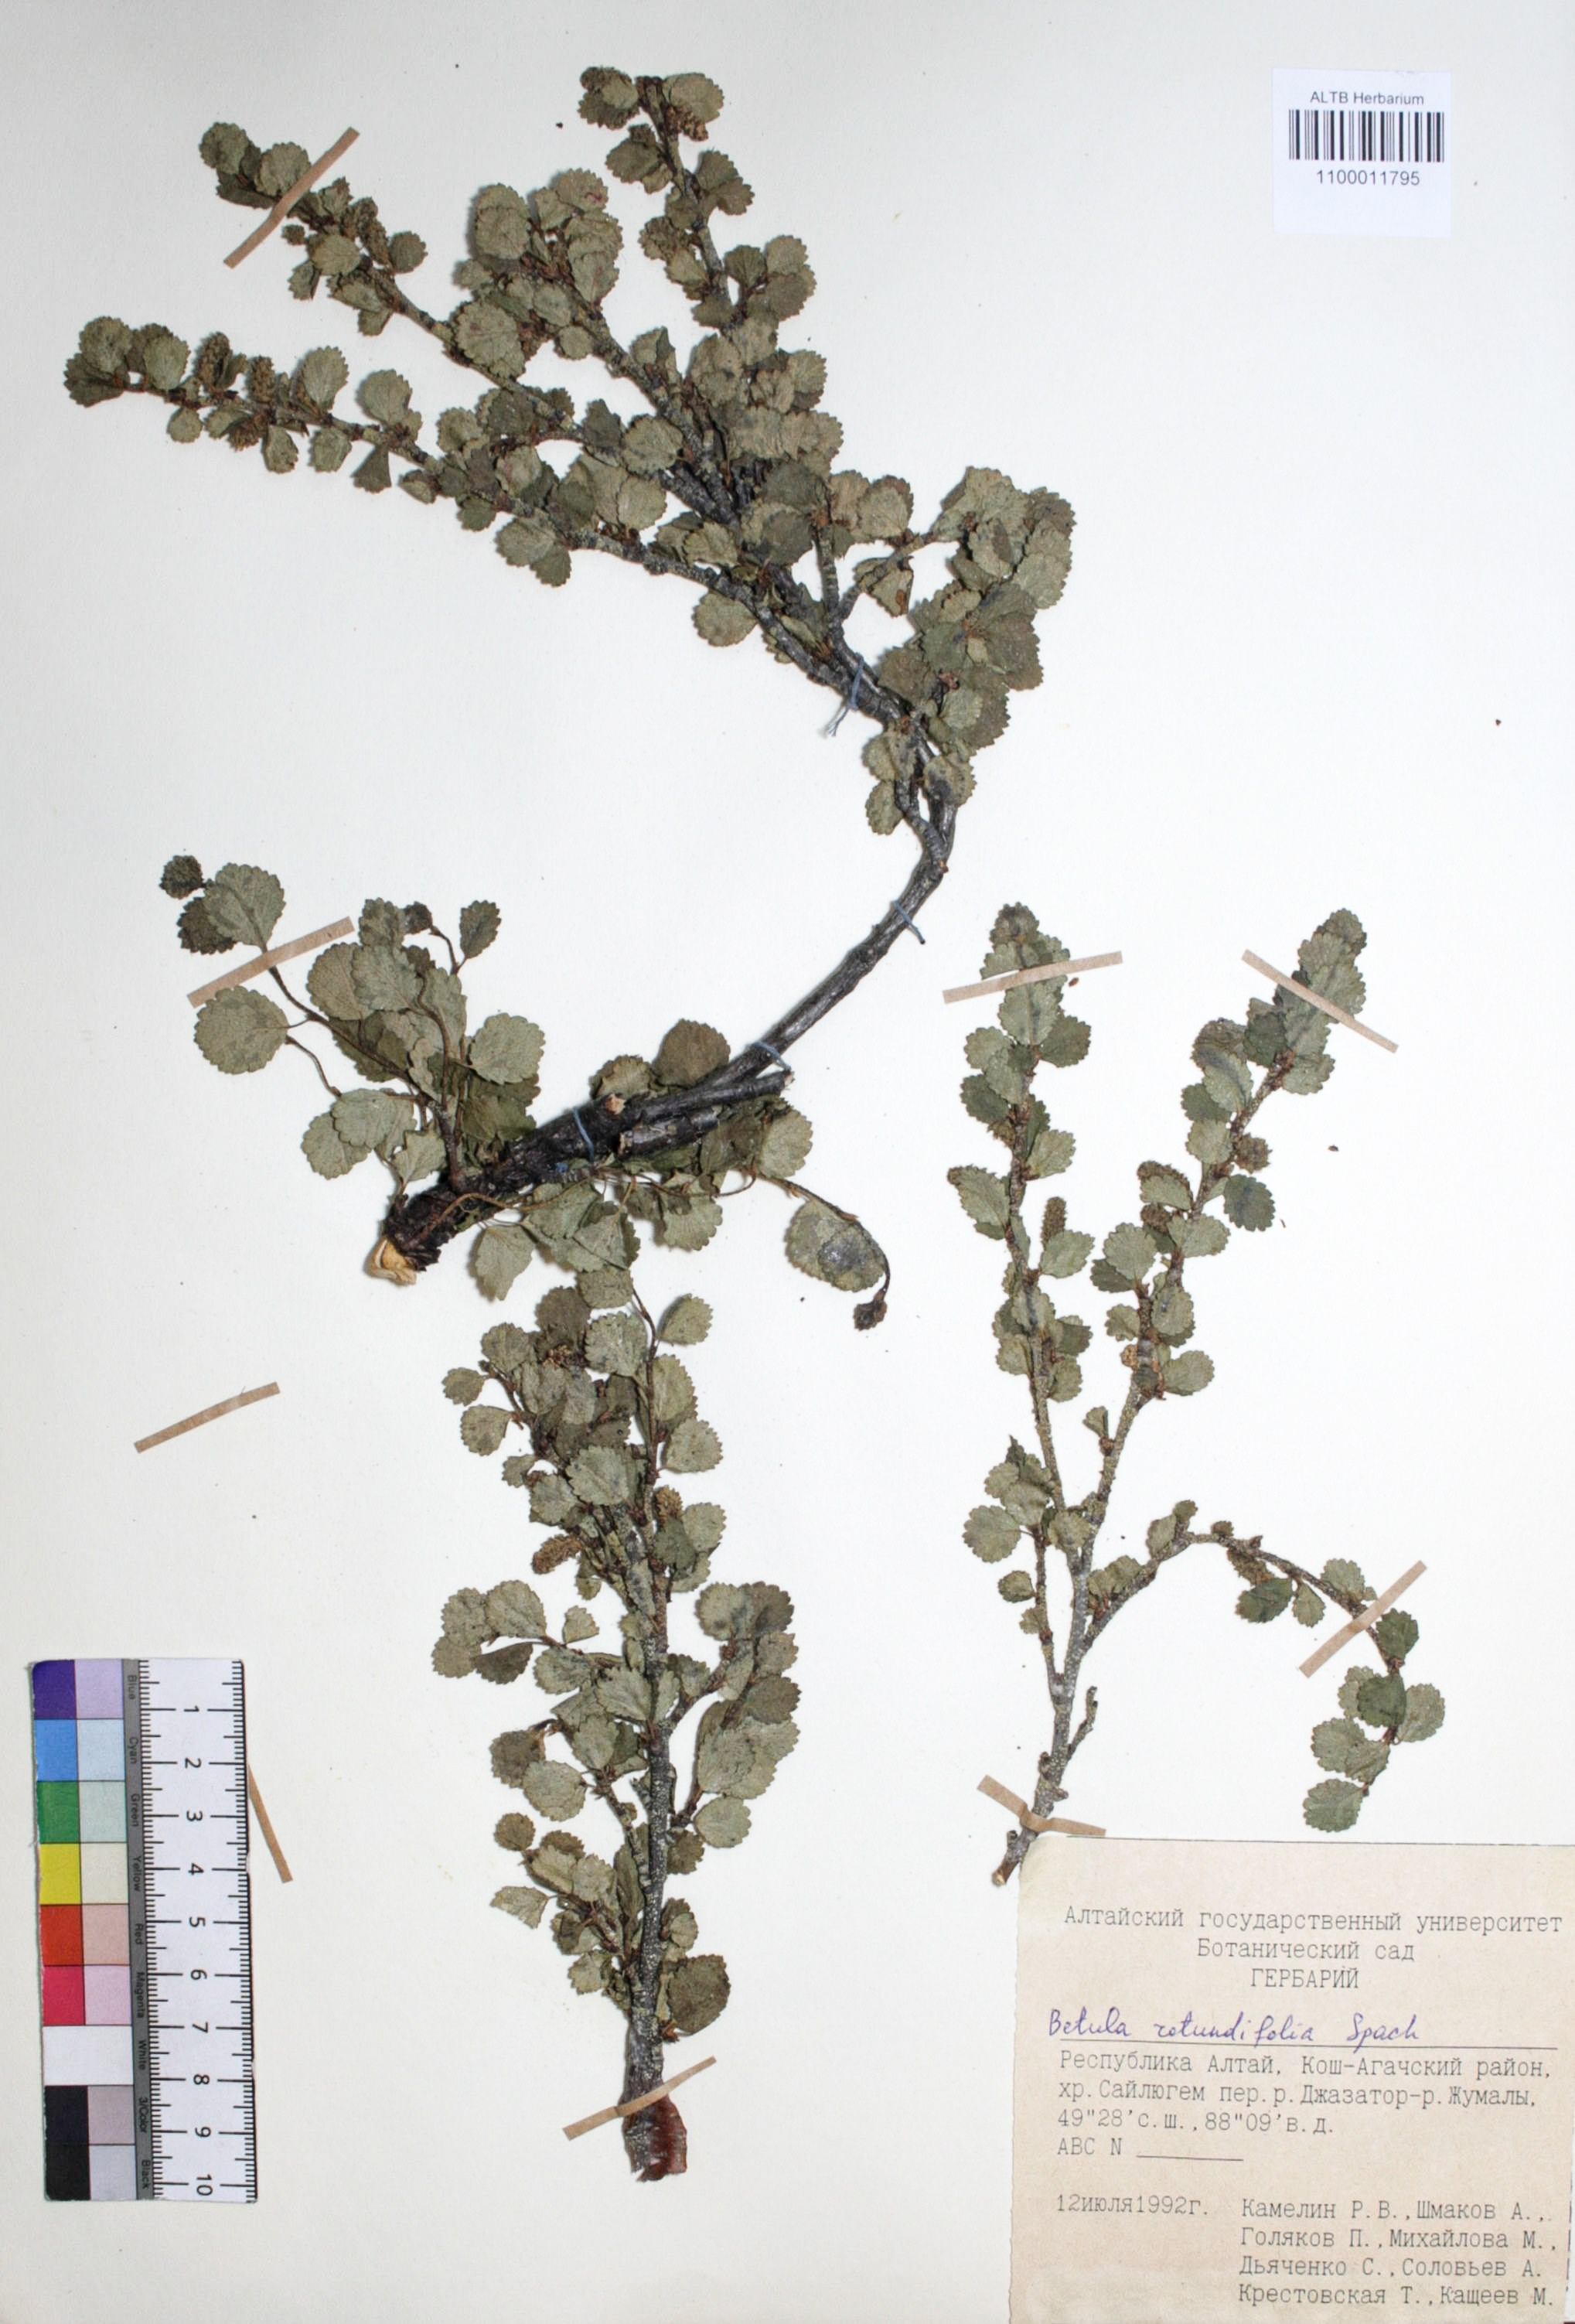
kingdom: Plantae
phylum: Tracheophyta
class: Magnoliopsida
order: Fagales
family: Betulaceae
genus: Betula
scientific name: Betula glandulosa
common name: Dwarf birch
